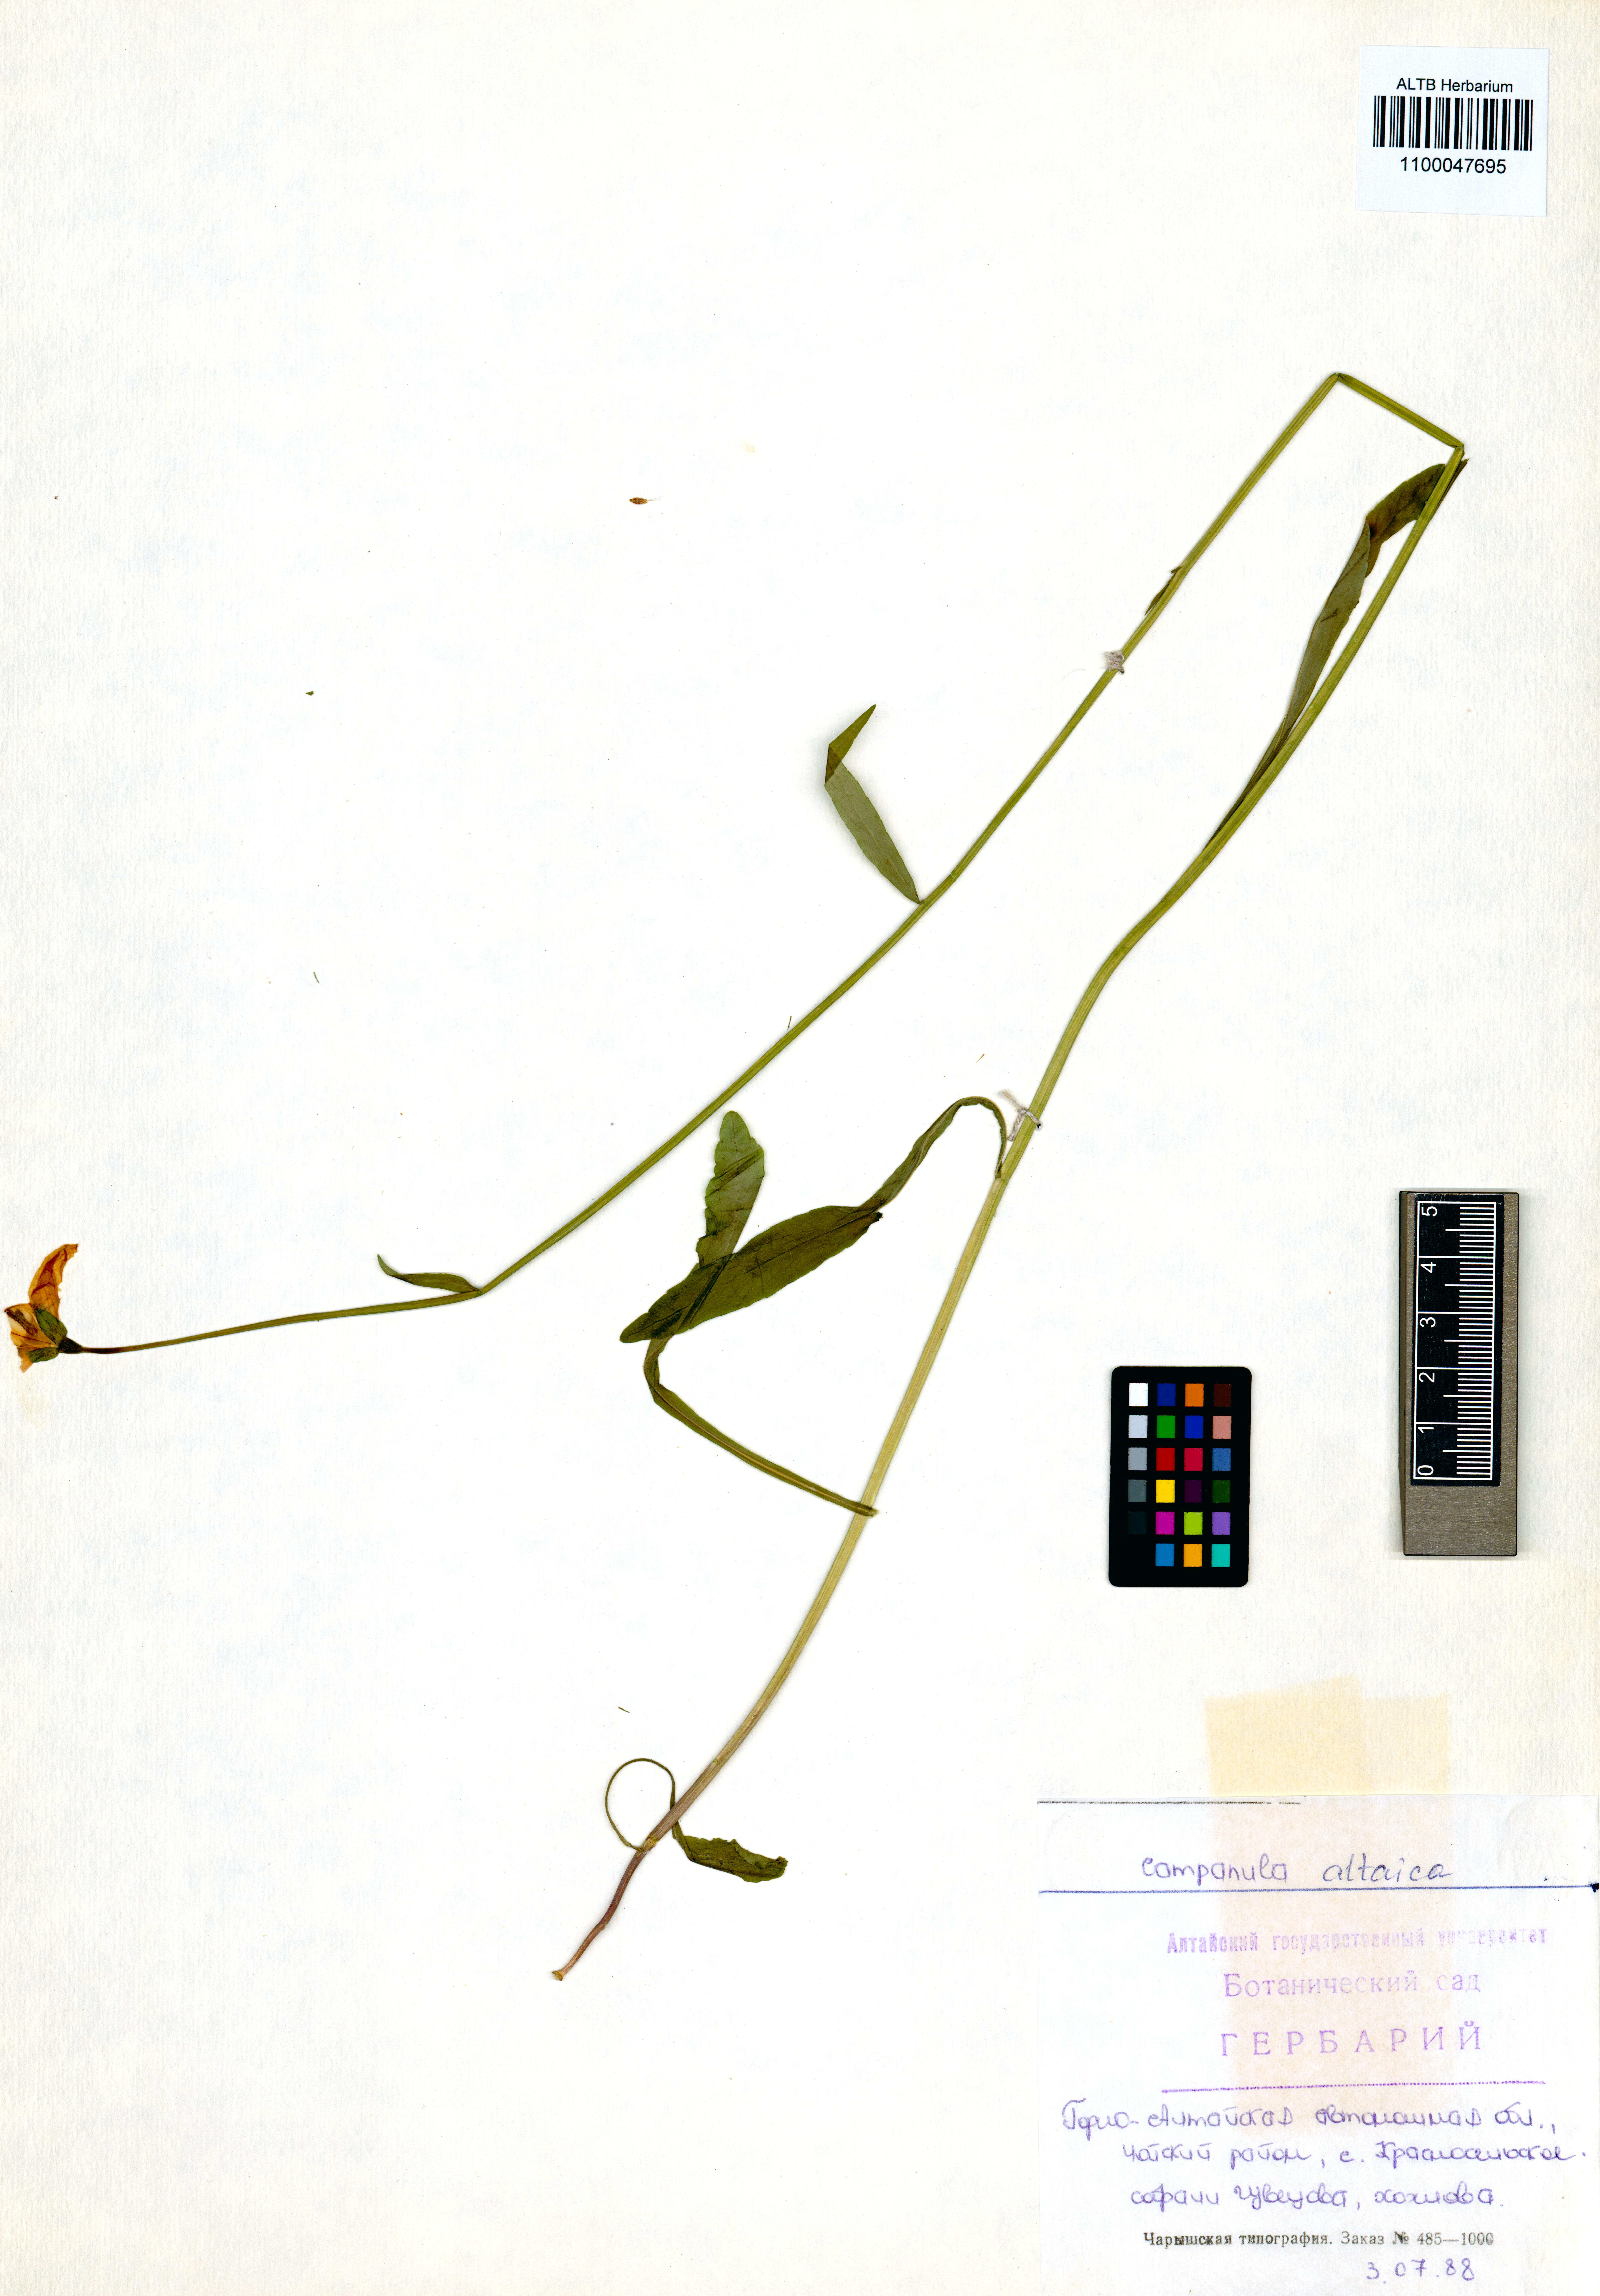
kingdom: Plantae
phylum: Tracheophyta
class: Magnoliopsida
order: Asterales
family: Campanulaceae
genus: Campanula
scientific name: Campanula stevenii
